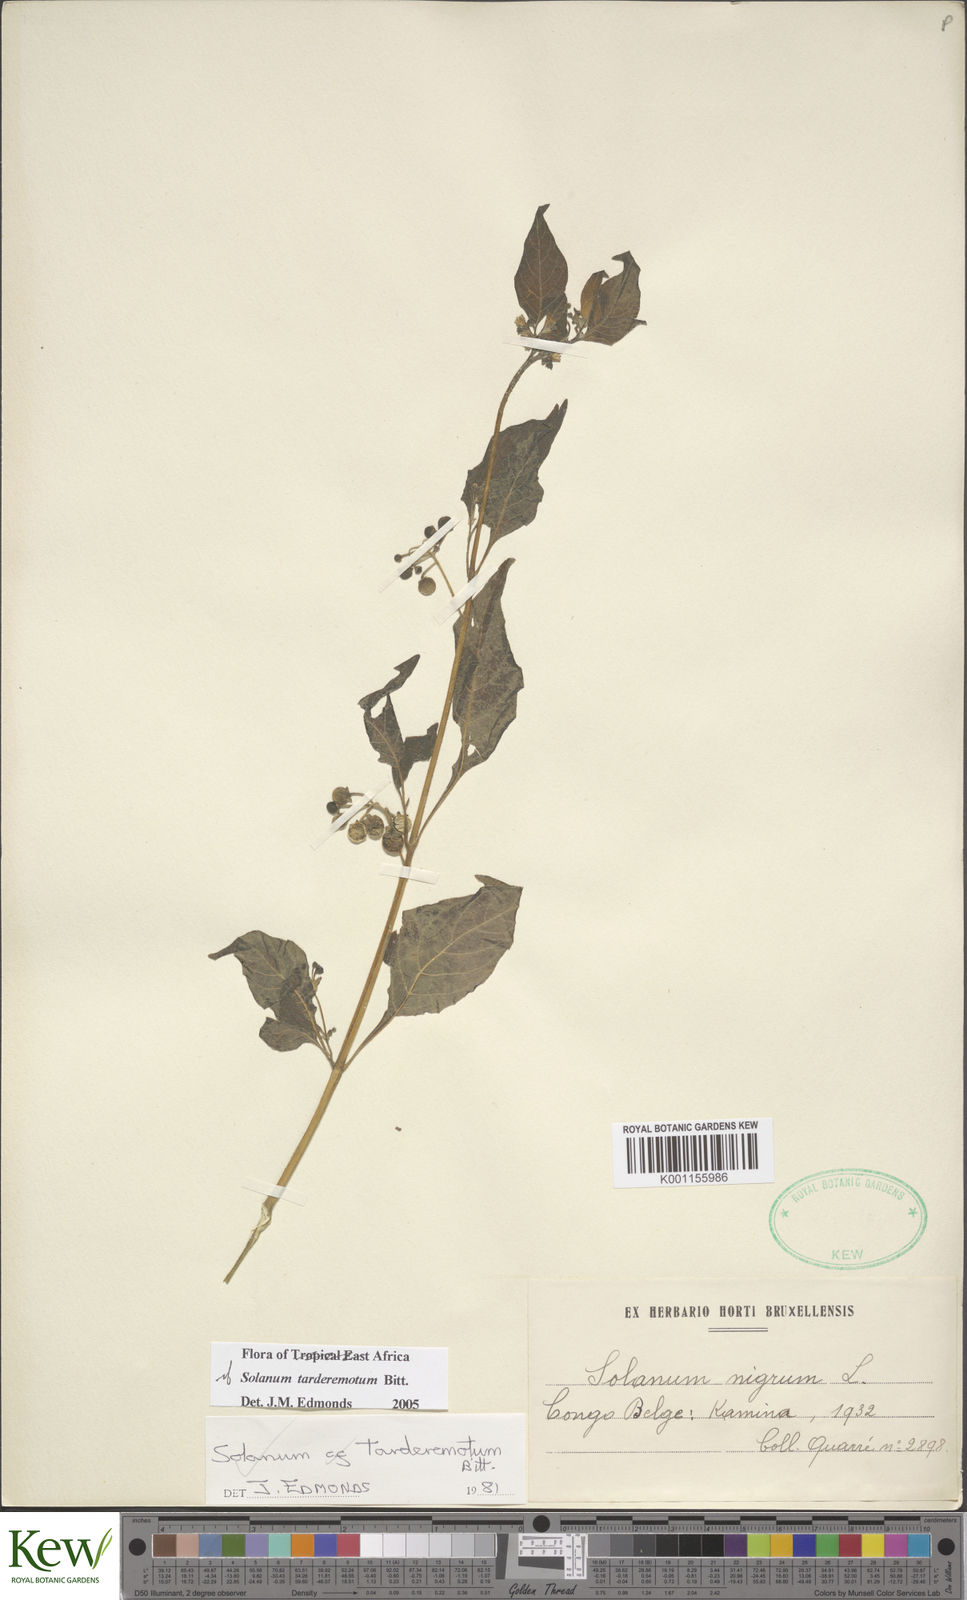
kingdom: Plantae
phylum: Tracheophyta
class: Magnoliopsida
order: Solanales
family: Solanaceae
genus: Solanum
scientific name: Solanum tarderemotum
